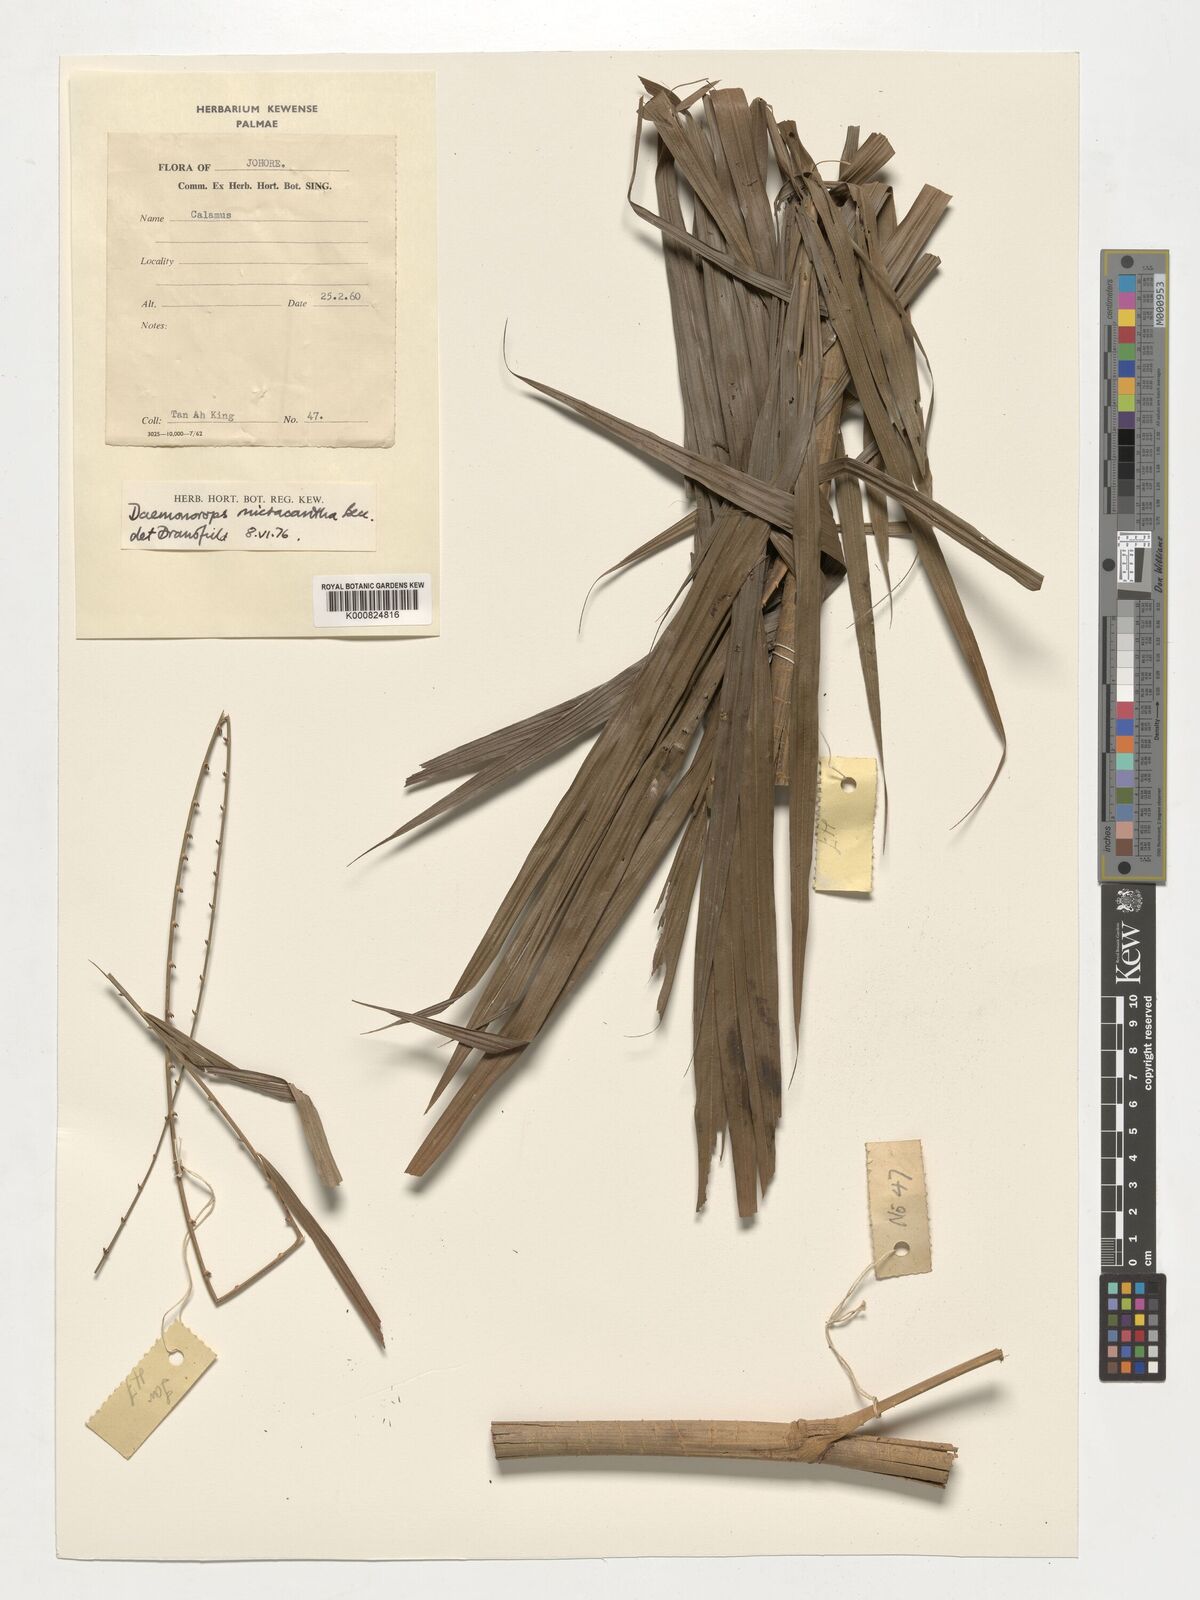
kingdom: Plantae
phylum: Tracheophyta
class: Liliopsida
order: Arecales
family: Arecaceae
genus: Calamus
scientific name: Calamus micracanthus
